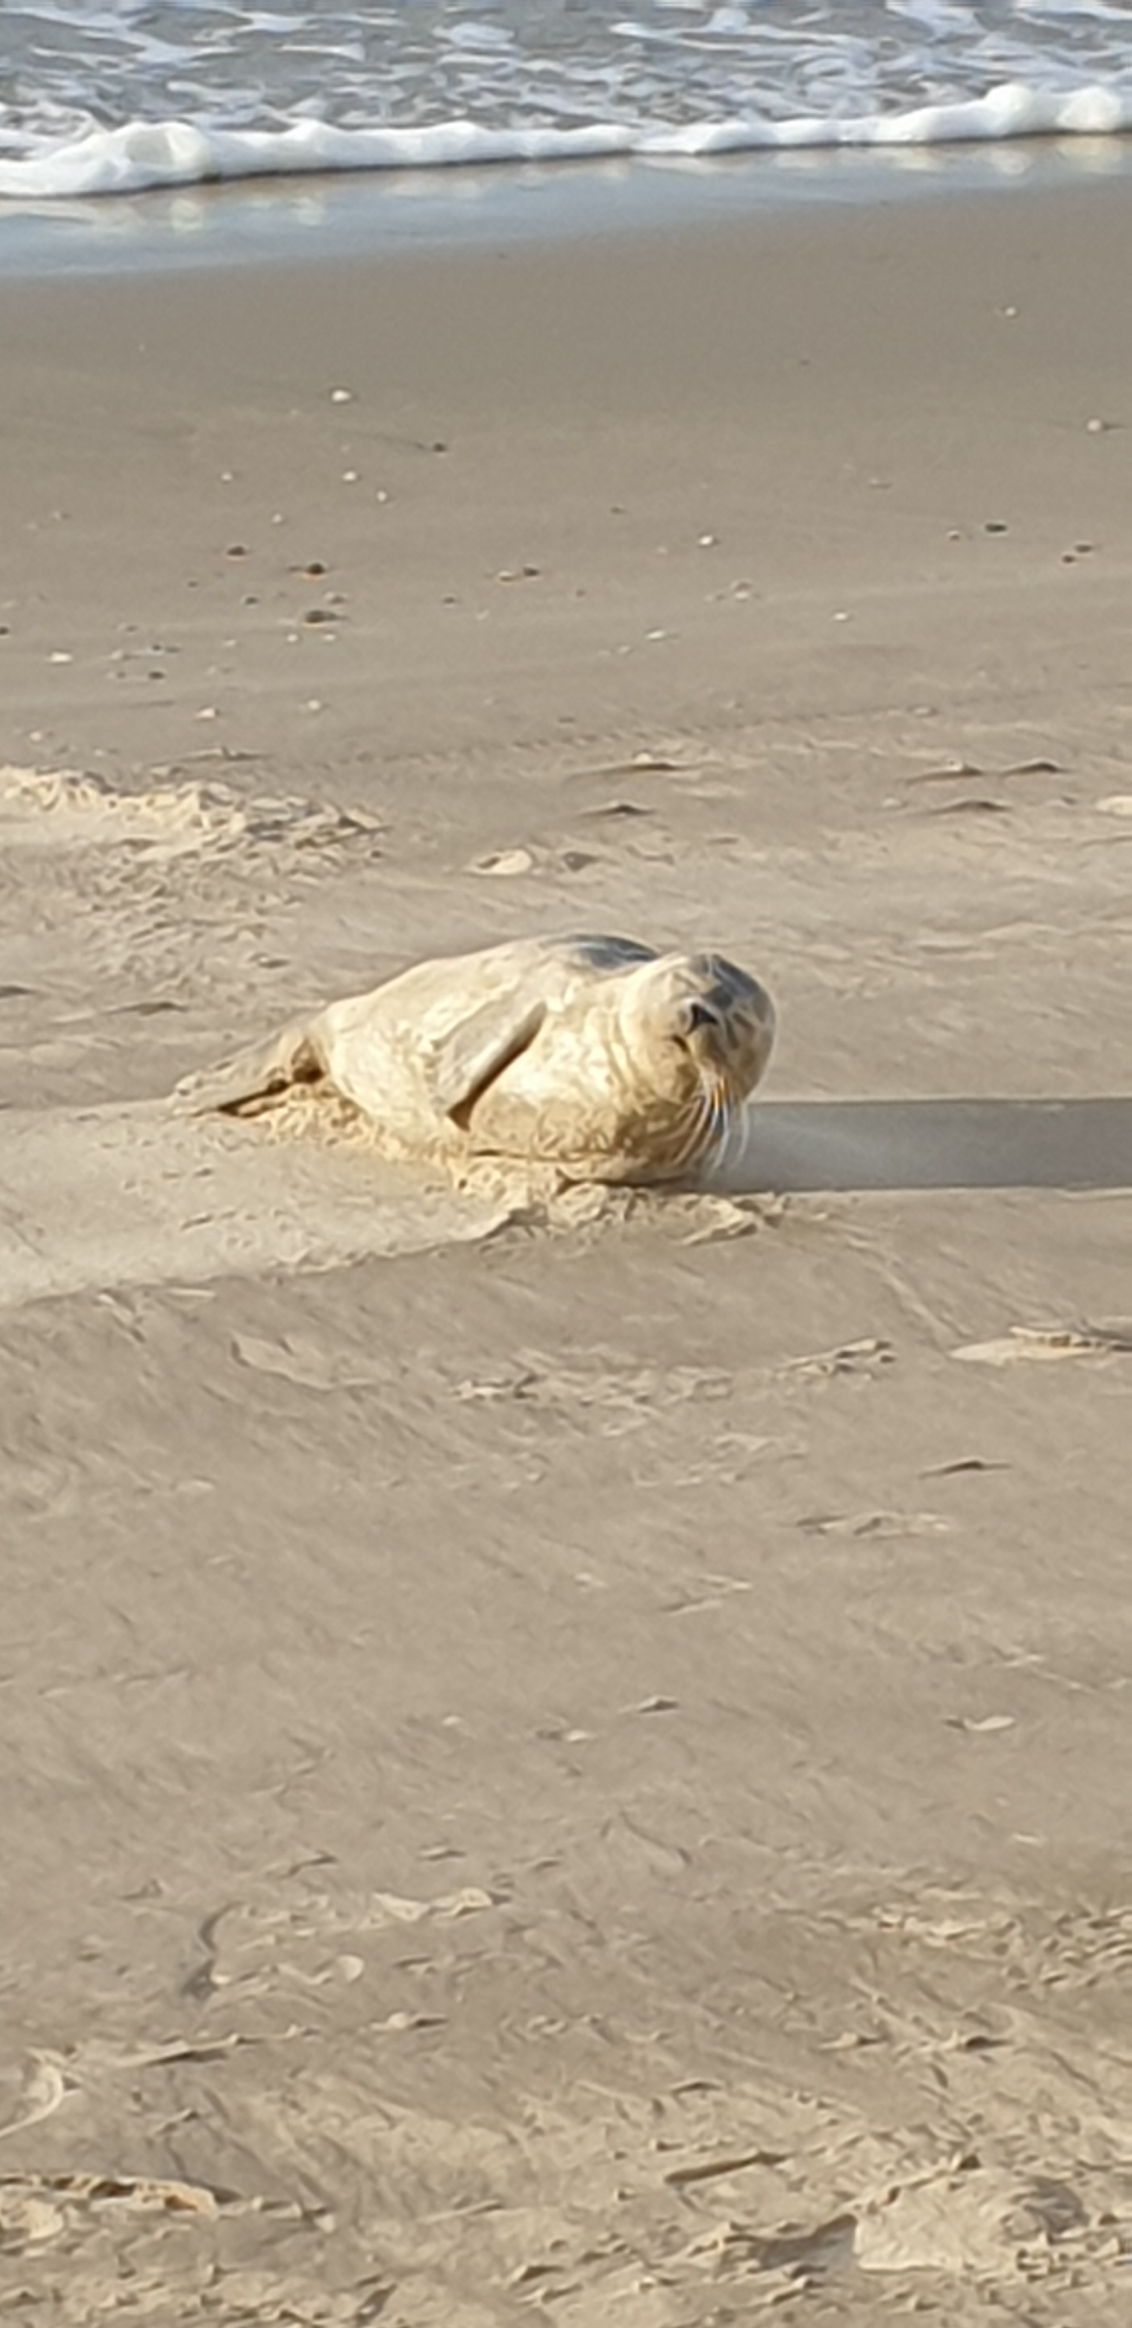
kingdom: Animalia
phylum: Chordata
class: Mammalia
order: Carnivora
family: Phocidae
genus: Phoca
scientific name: Phoca vitulina
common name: Spættet sæl
